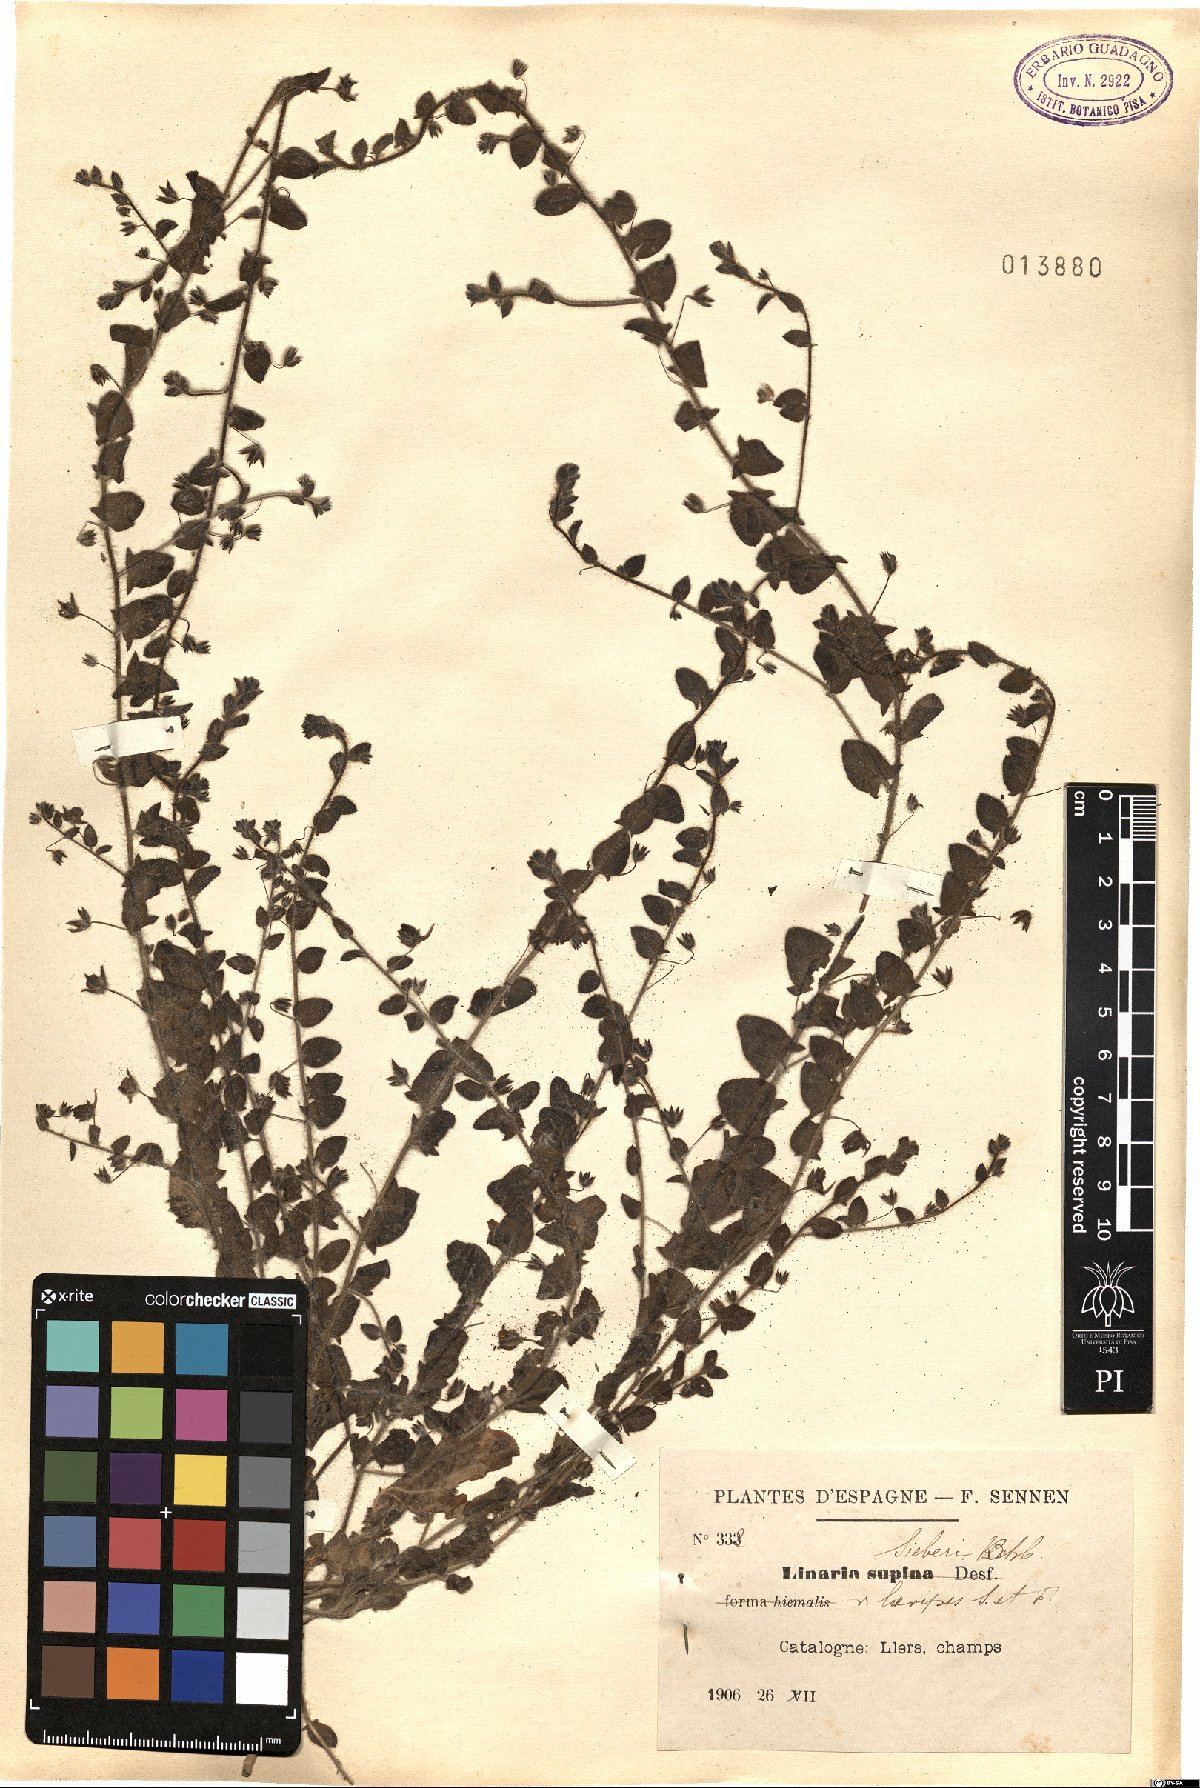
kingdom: Plantae
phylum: Tracheophyta
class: Magnoliopsida
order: Lamiales
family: Plantaginaceae
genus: Kickxia
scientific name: Kickxia elatine
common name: Sharp-leaved fluellen
